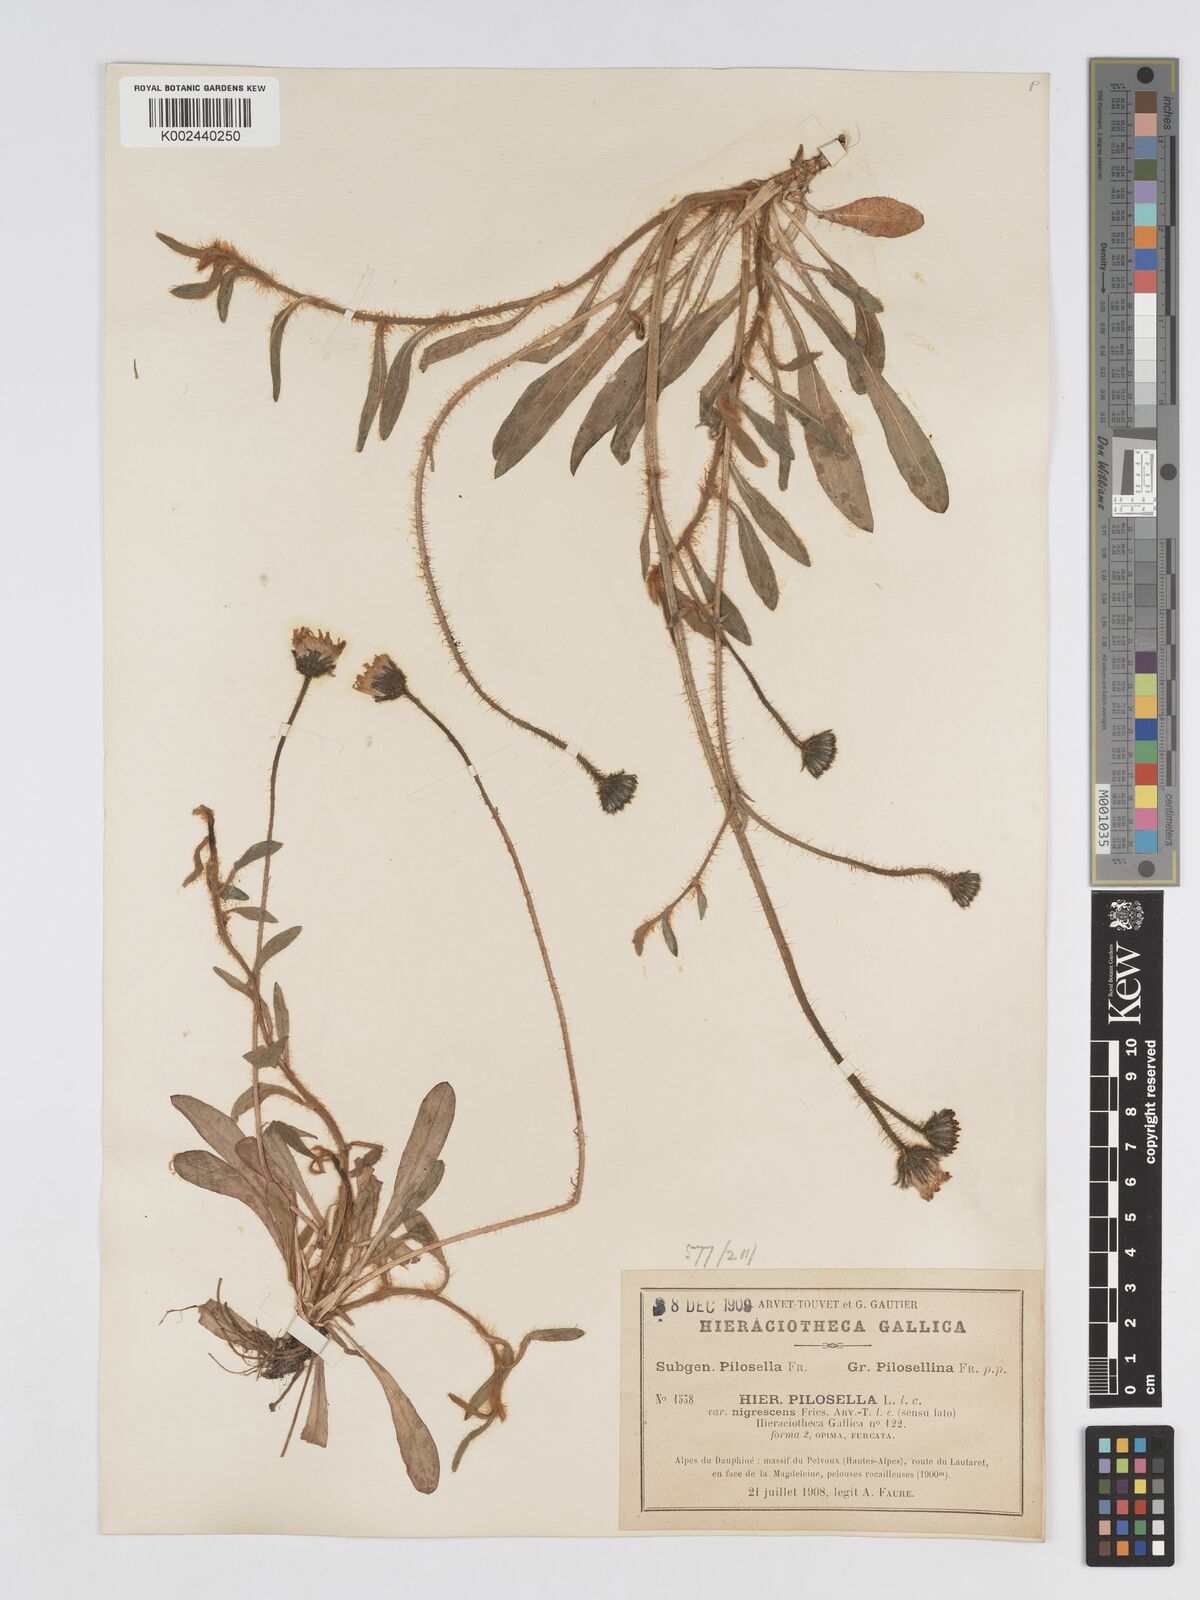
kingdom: Plantae
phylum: Tracheophyta
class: Magnoliopsida
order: Asterales
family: Asteraceae
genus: Pilosella
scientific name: Pilosella officinarum
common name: Mouse-ear hawkweed
